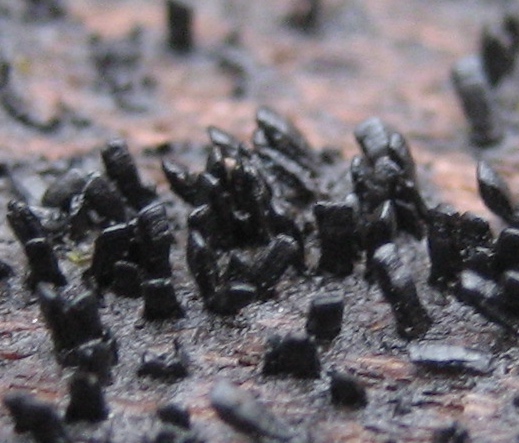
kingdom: Fungi
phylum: Ascomycota
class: Eurotiomycetes
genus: Glyphium
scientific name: Glyphium elatum
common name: kuløkse
